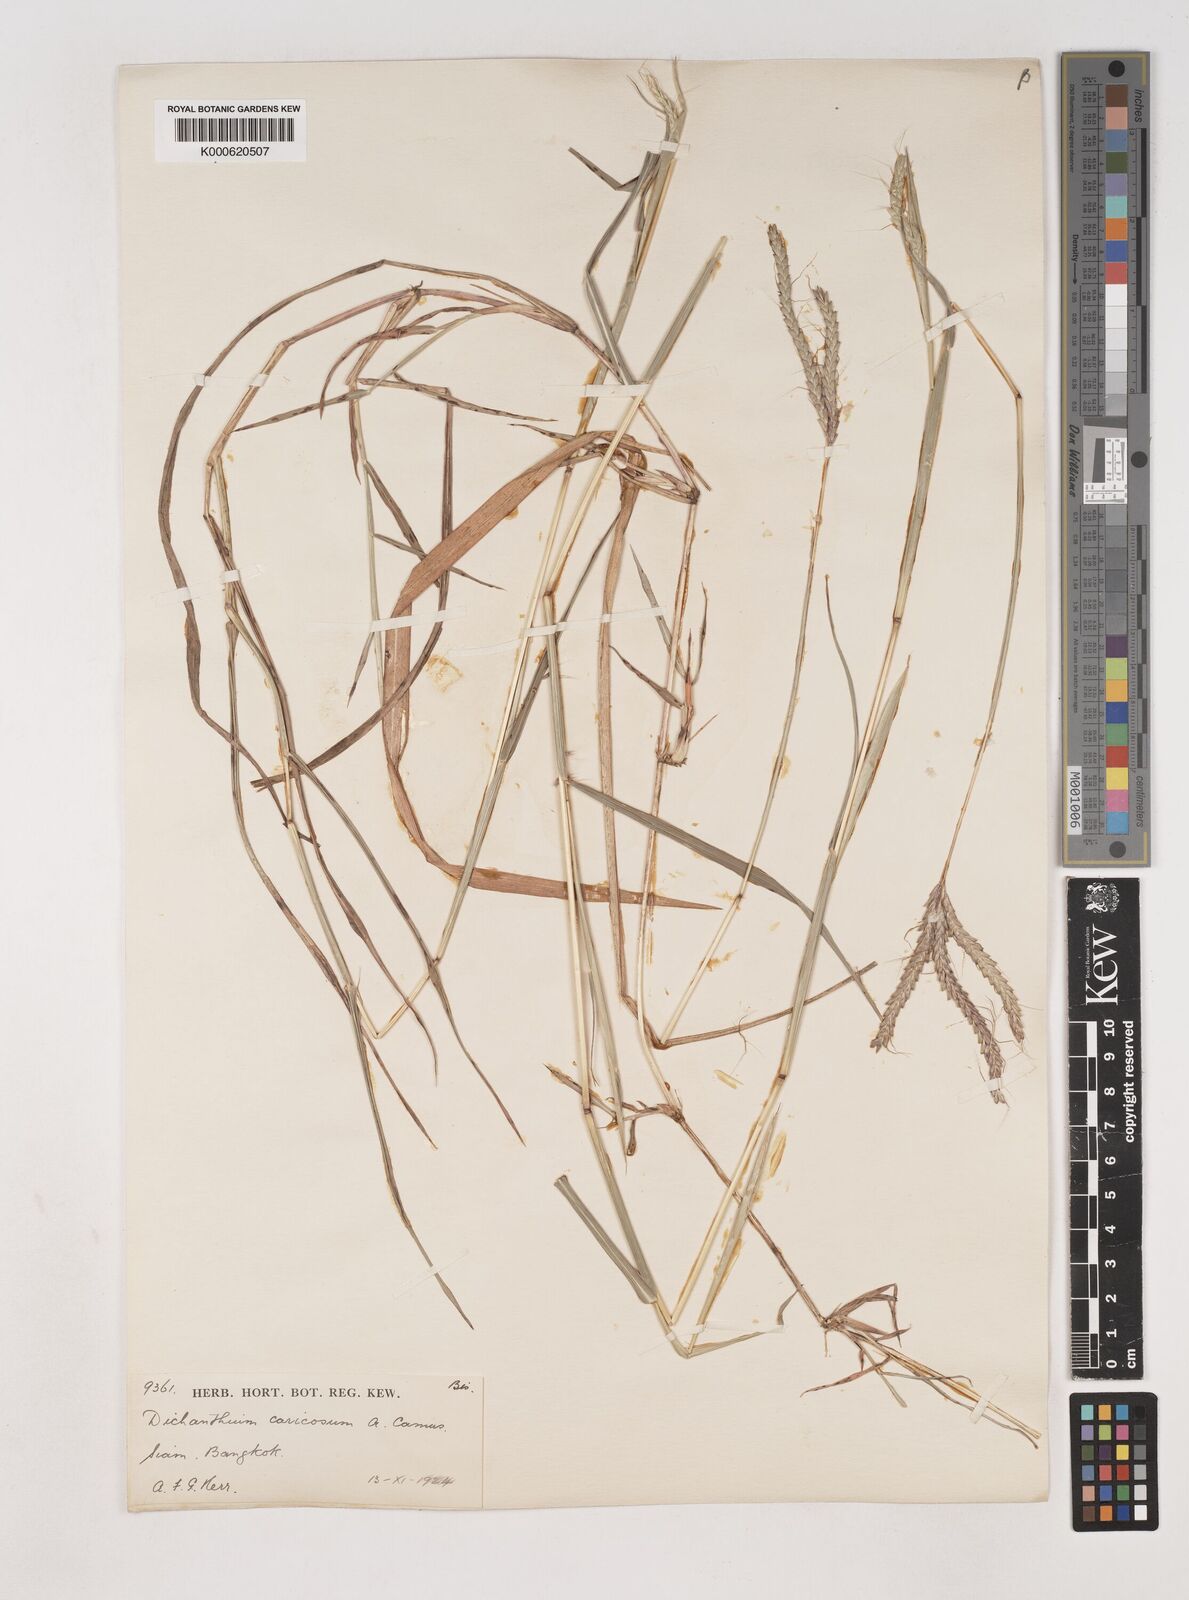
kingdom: Plantae
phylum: Tracheophyta
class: Liliopsida
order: Poales
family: Poaceae
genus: Dichanthium
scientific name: Dichanthium caricosum
